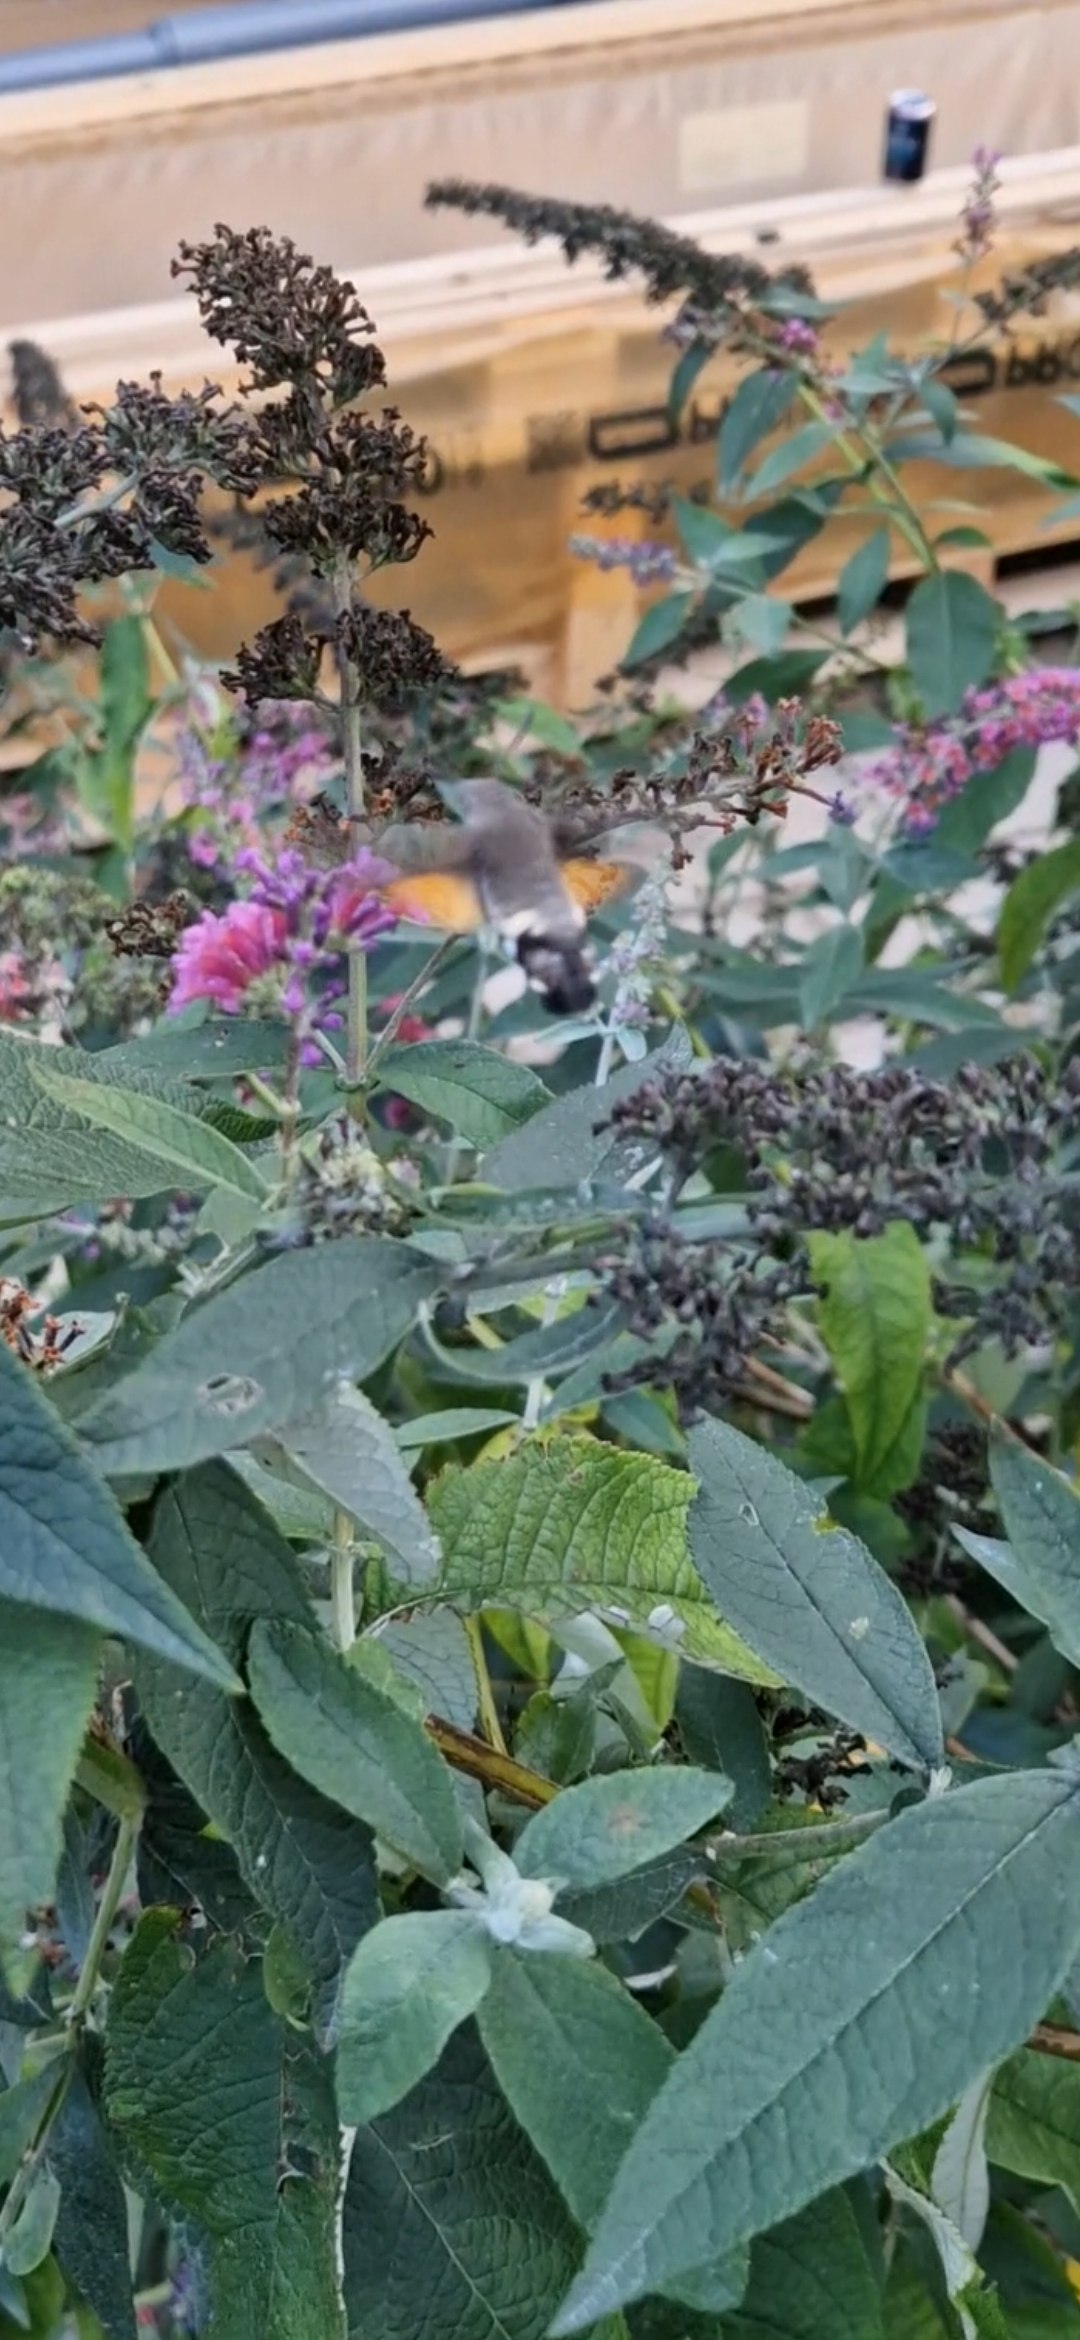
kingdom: Animalia
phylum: Arthropoda
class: Insecta
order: Lepidoptera
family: Sphingidae
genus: Macroglossum
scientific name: Macroglossum stellatarum
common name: Duehale
